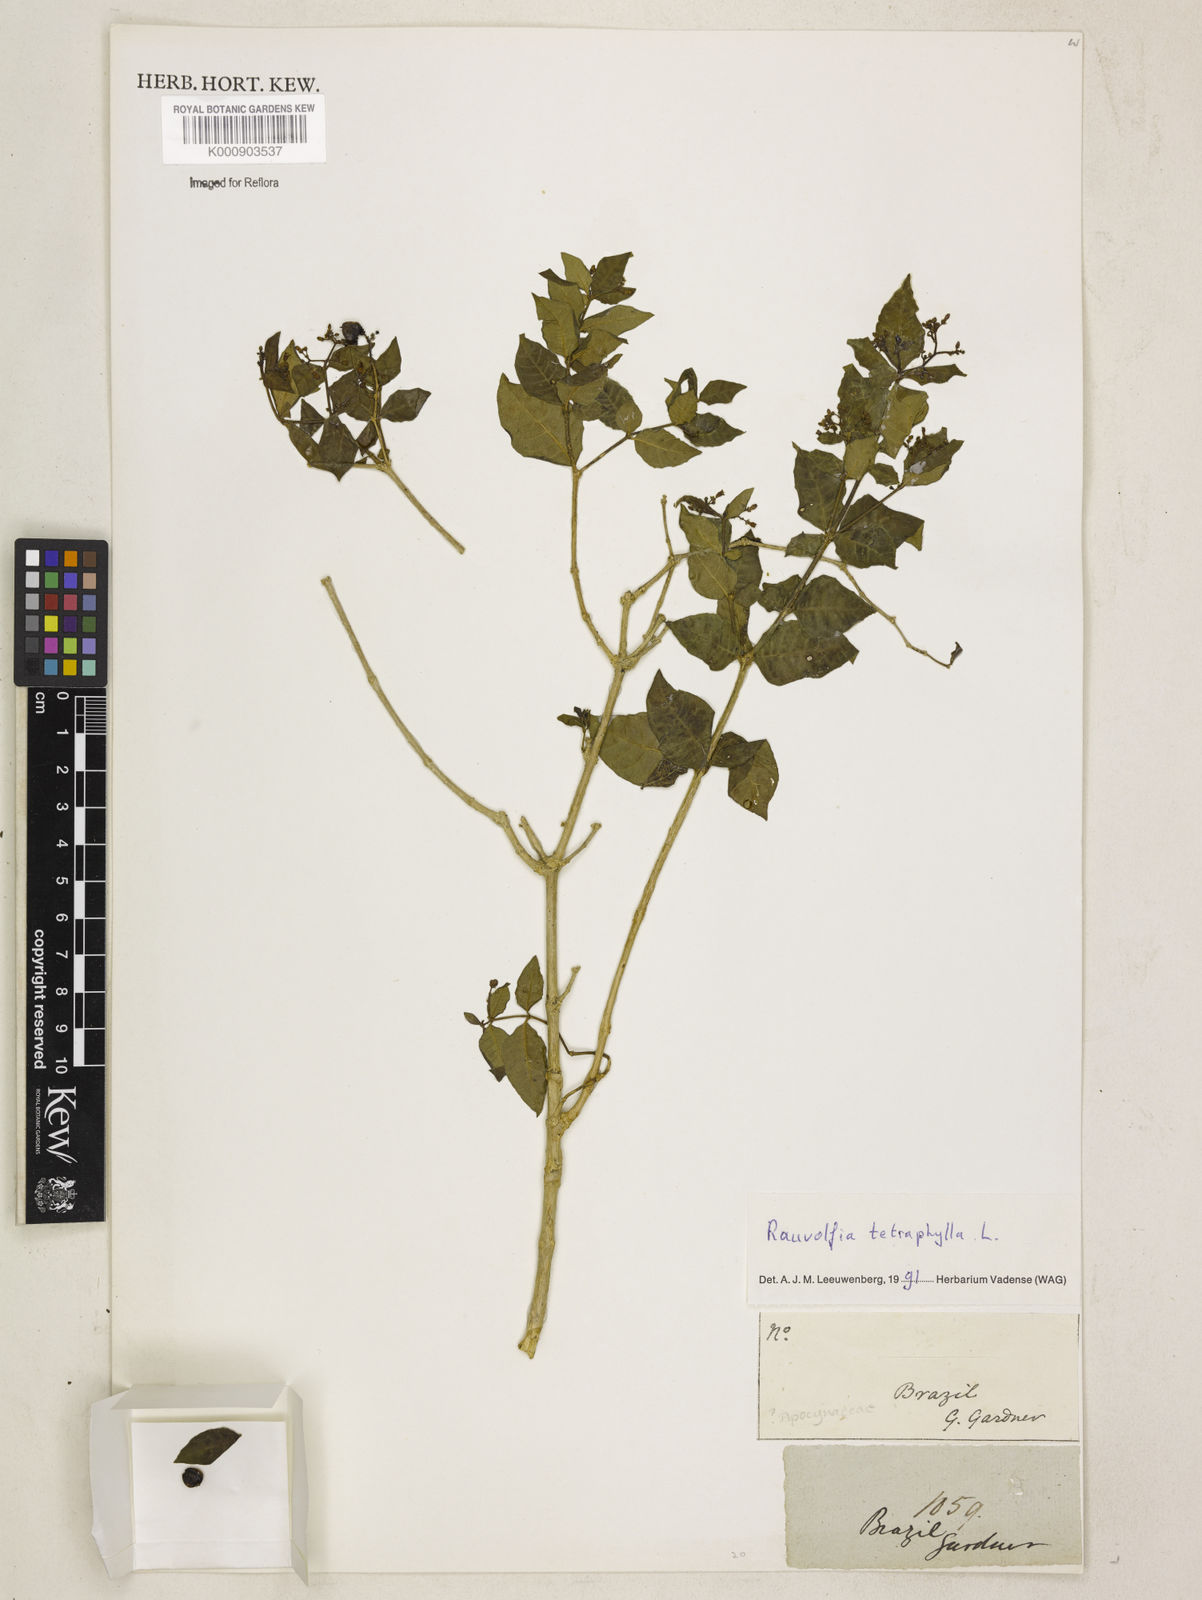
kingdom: Plantae
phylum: Tracheophyta
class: Magnoliopsida
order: Gentianales
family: Apocynaceae
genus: Rauvolfia
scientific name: Rauvolfia tetraphylla
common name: Four-leaf devil-pepper
